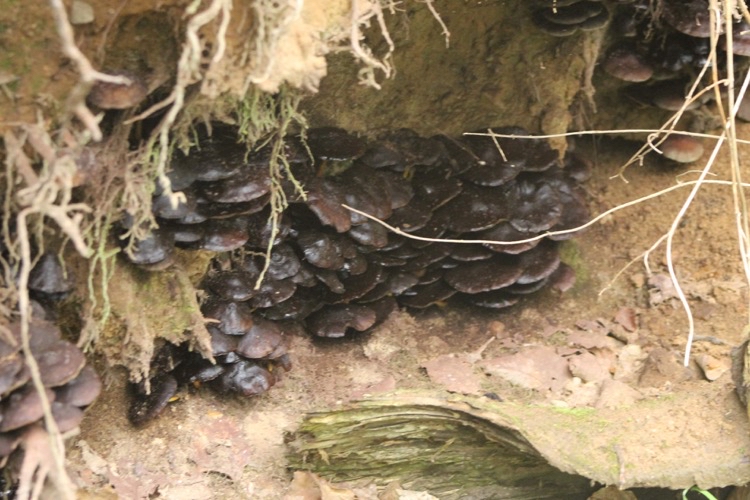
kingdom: Fungi
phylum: Basidiomycota
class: Agaricomycetes
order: Agaricales
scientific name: Agaricales
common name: champignonordenen
